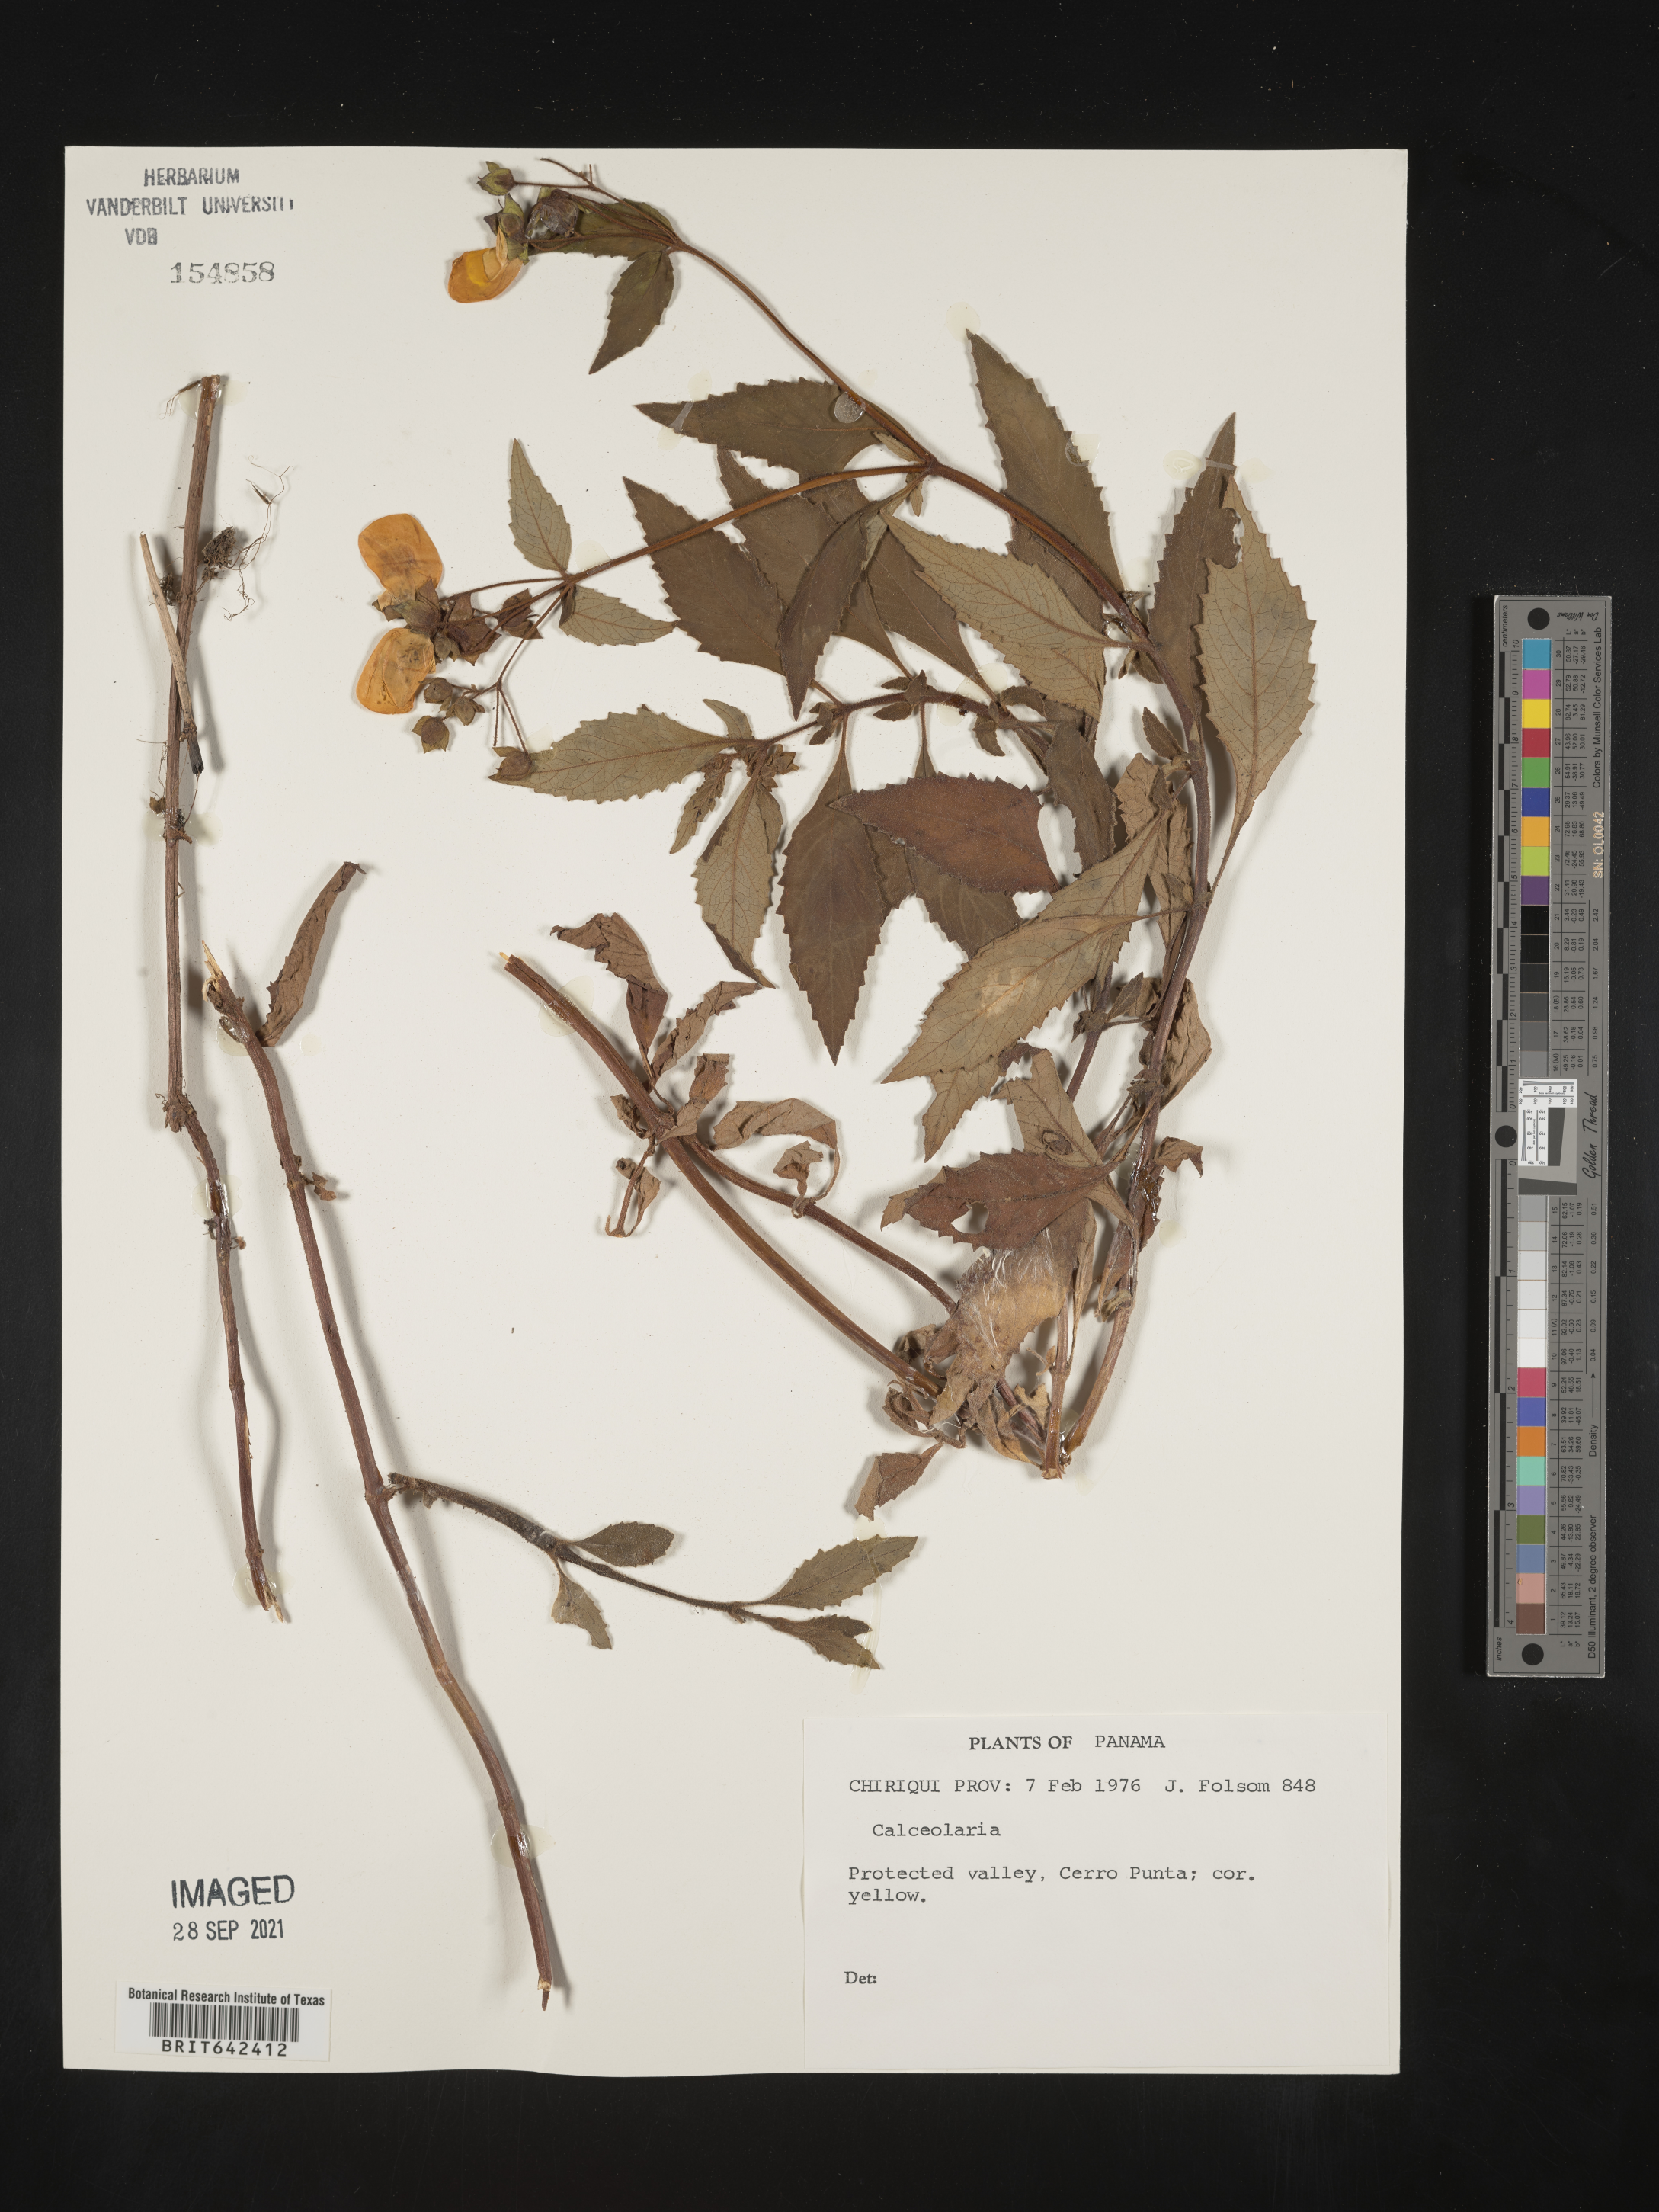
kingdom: Plantae
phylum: Tracheophyta
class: Magnoliopsida
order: Lamiales
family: Calceolariaceae
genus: Calceolaria
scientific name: Calceolaria
